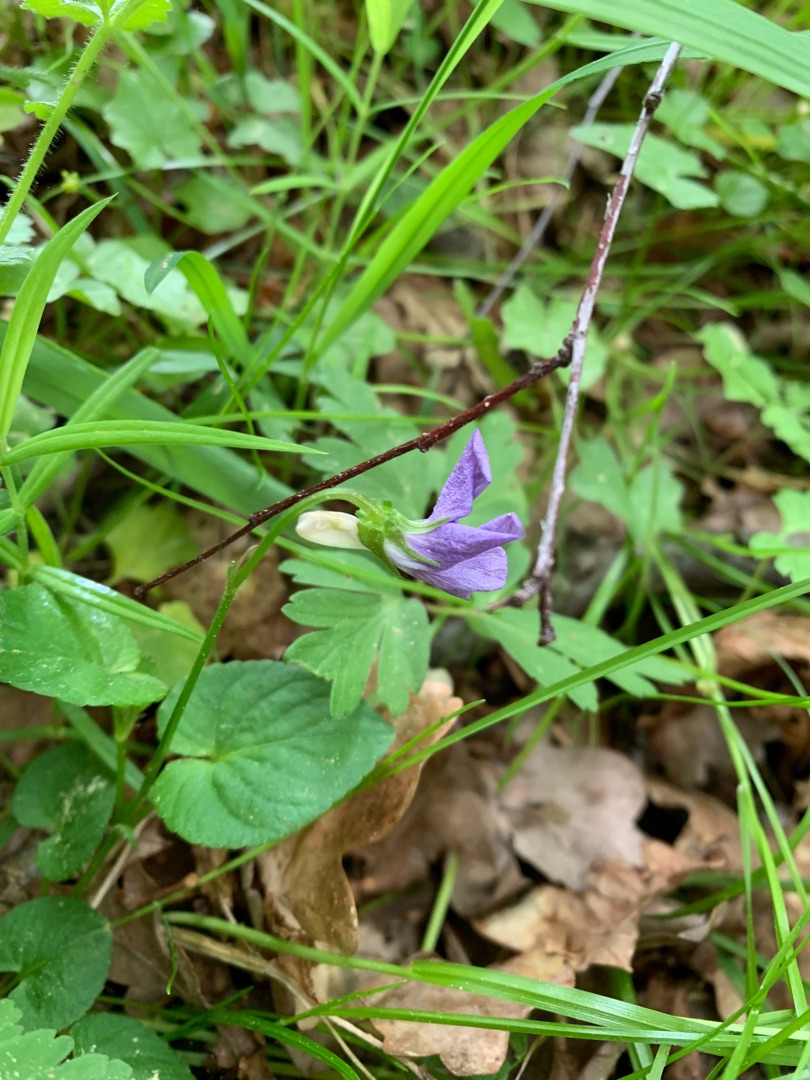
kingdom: Plantae
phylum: Tracheophyta
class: Magnoliopsida
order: Malpighiales
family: Violaceae
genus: Viola
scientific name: Viola riviniana
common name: Krat-viol
